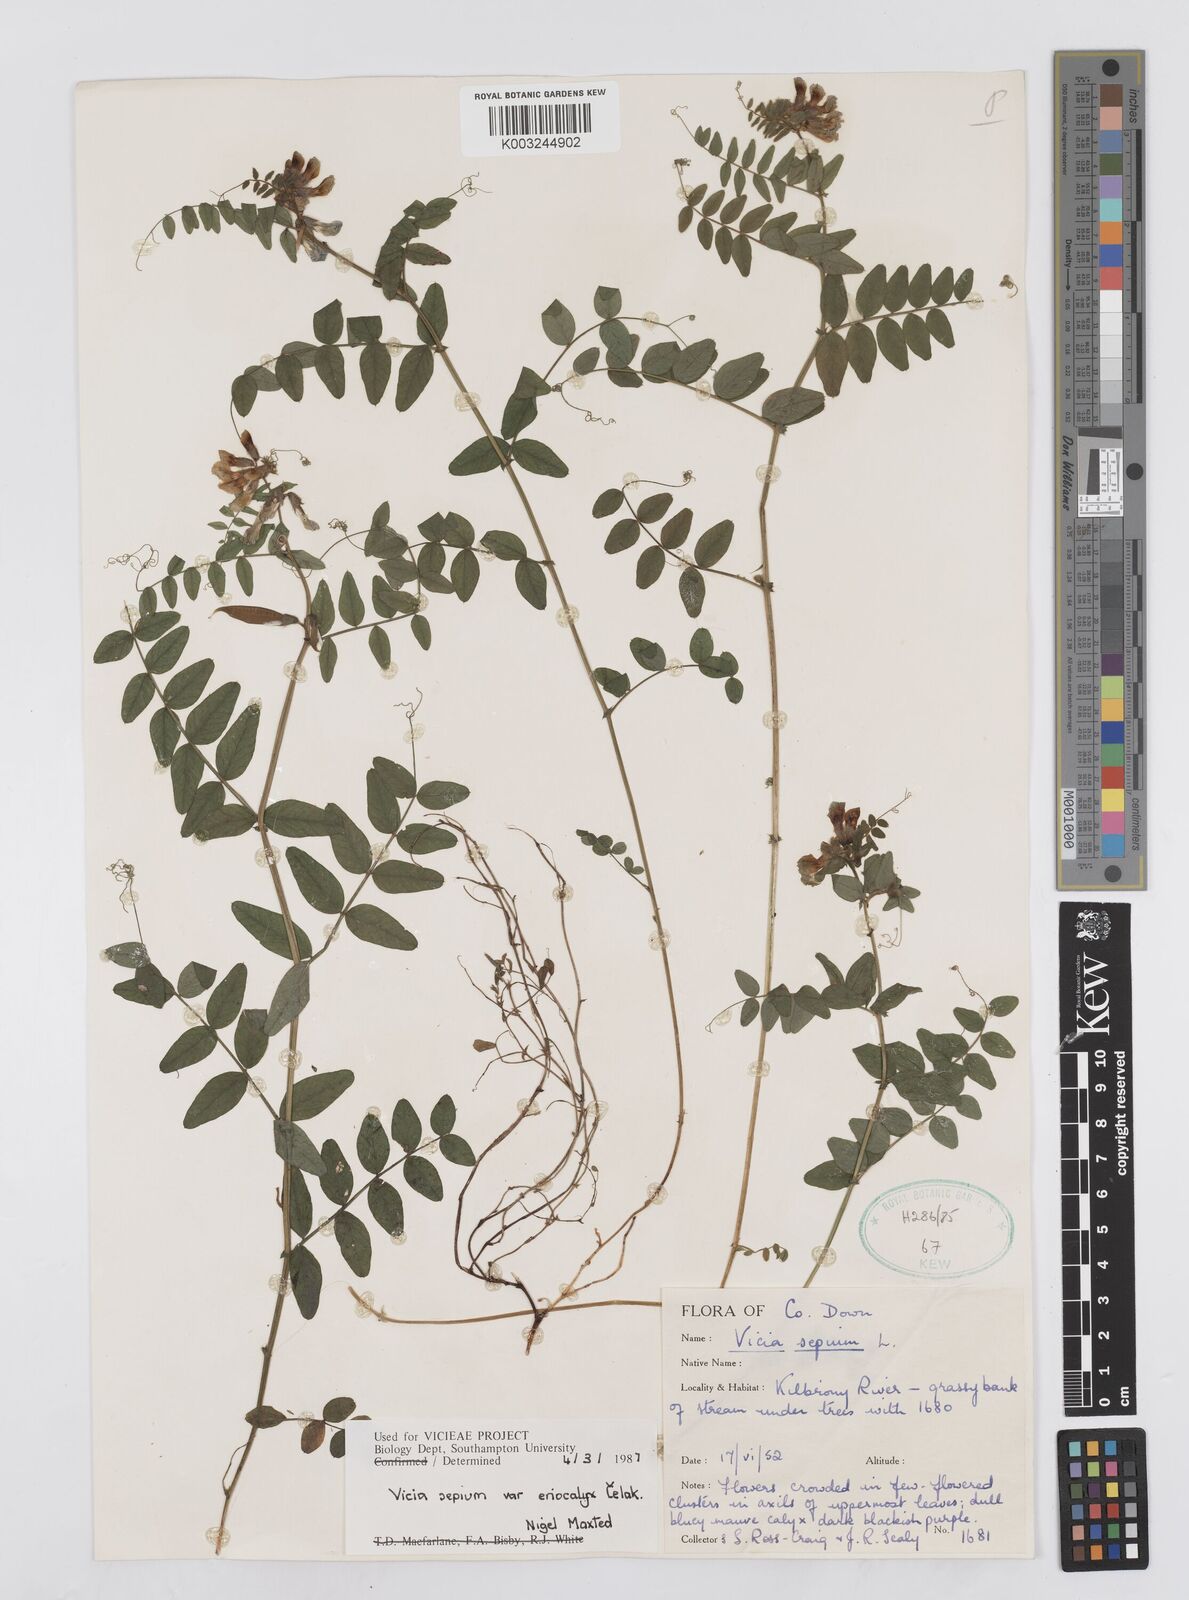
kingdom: Plantae
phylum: Tracheophyta
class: Magnoliopsida
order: Fabales
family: Fabaceae
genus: Vicia
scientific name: Vicia sepium
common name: Bush vetch
